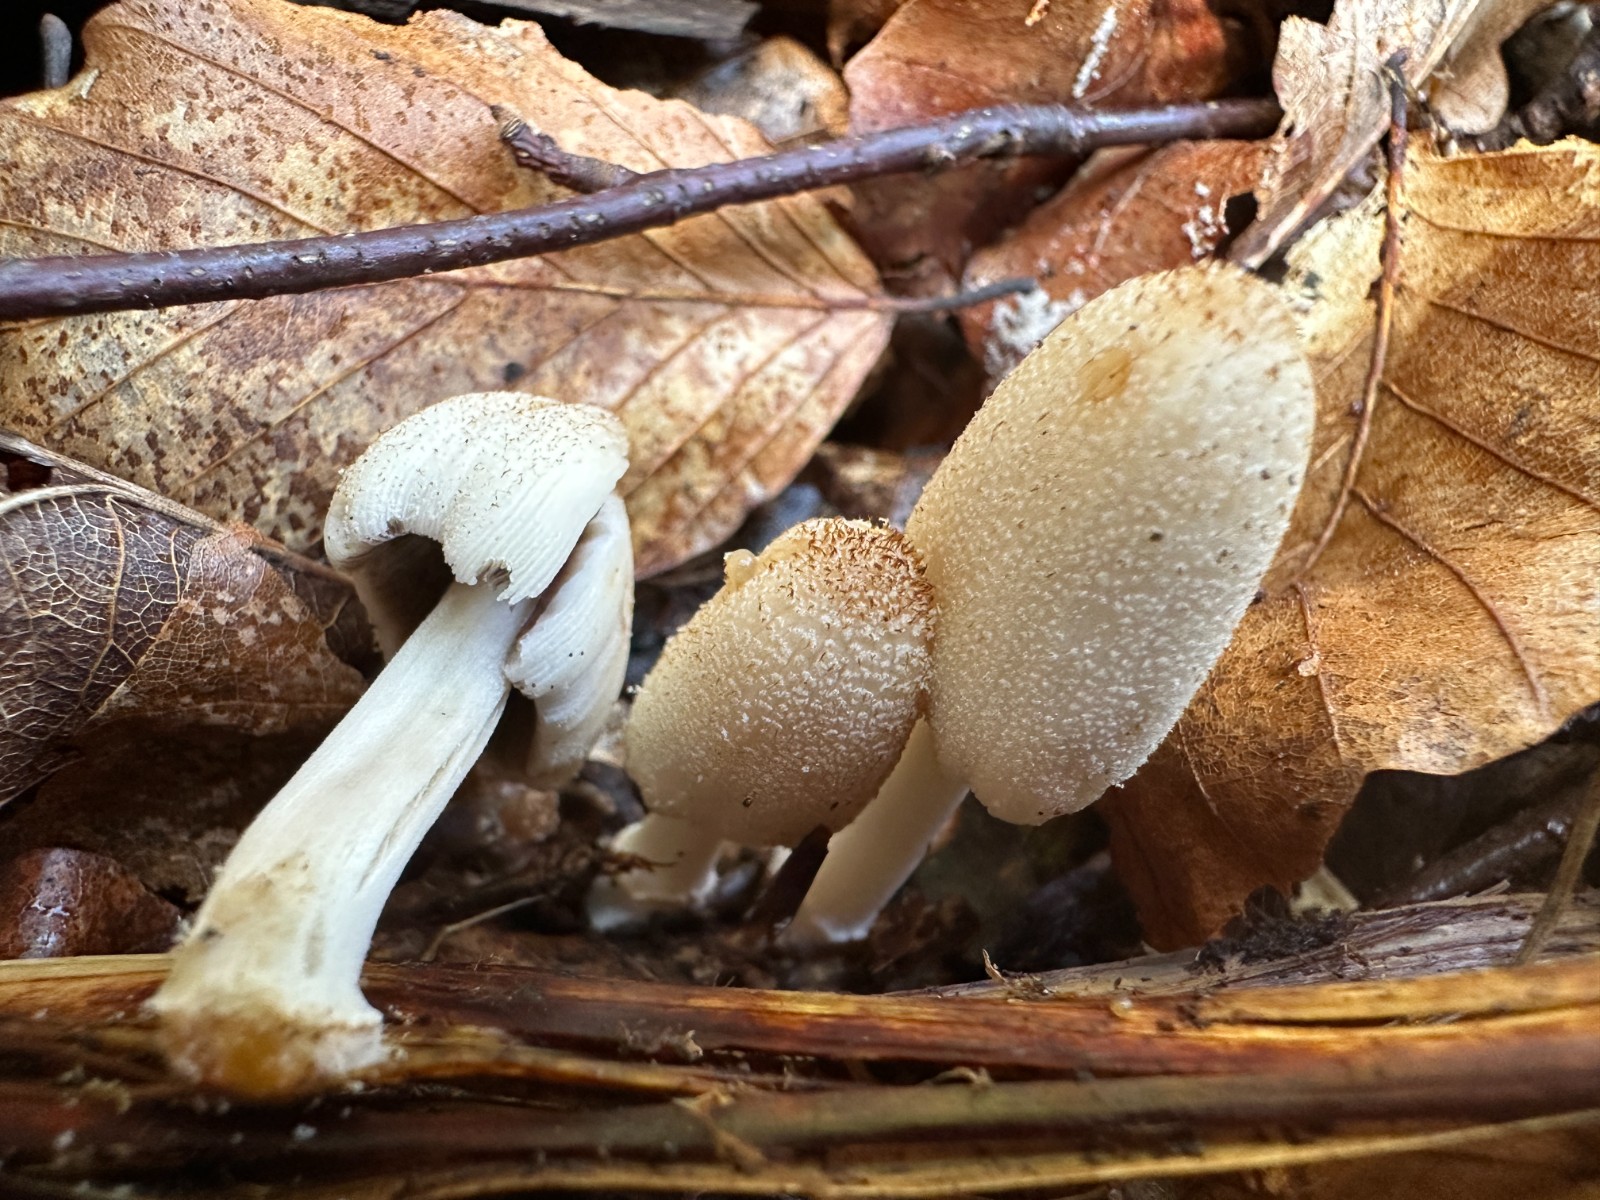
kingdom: Fungi
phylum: Basidiomycota
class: Agaricomycetes
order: Agaricales
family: Psathyrellaceae
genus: Coprinellus
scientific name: Coprinellus
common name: blækhat
